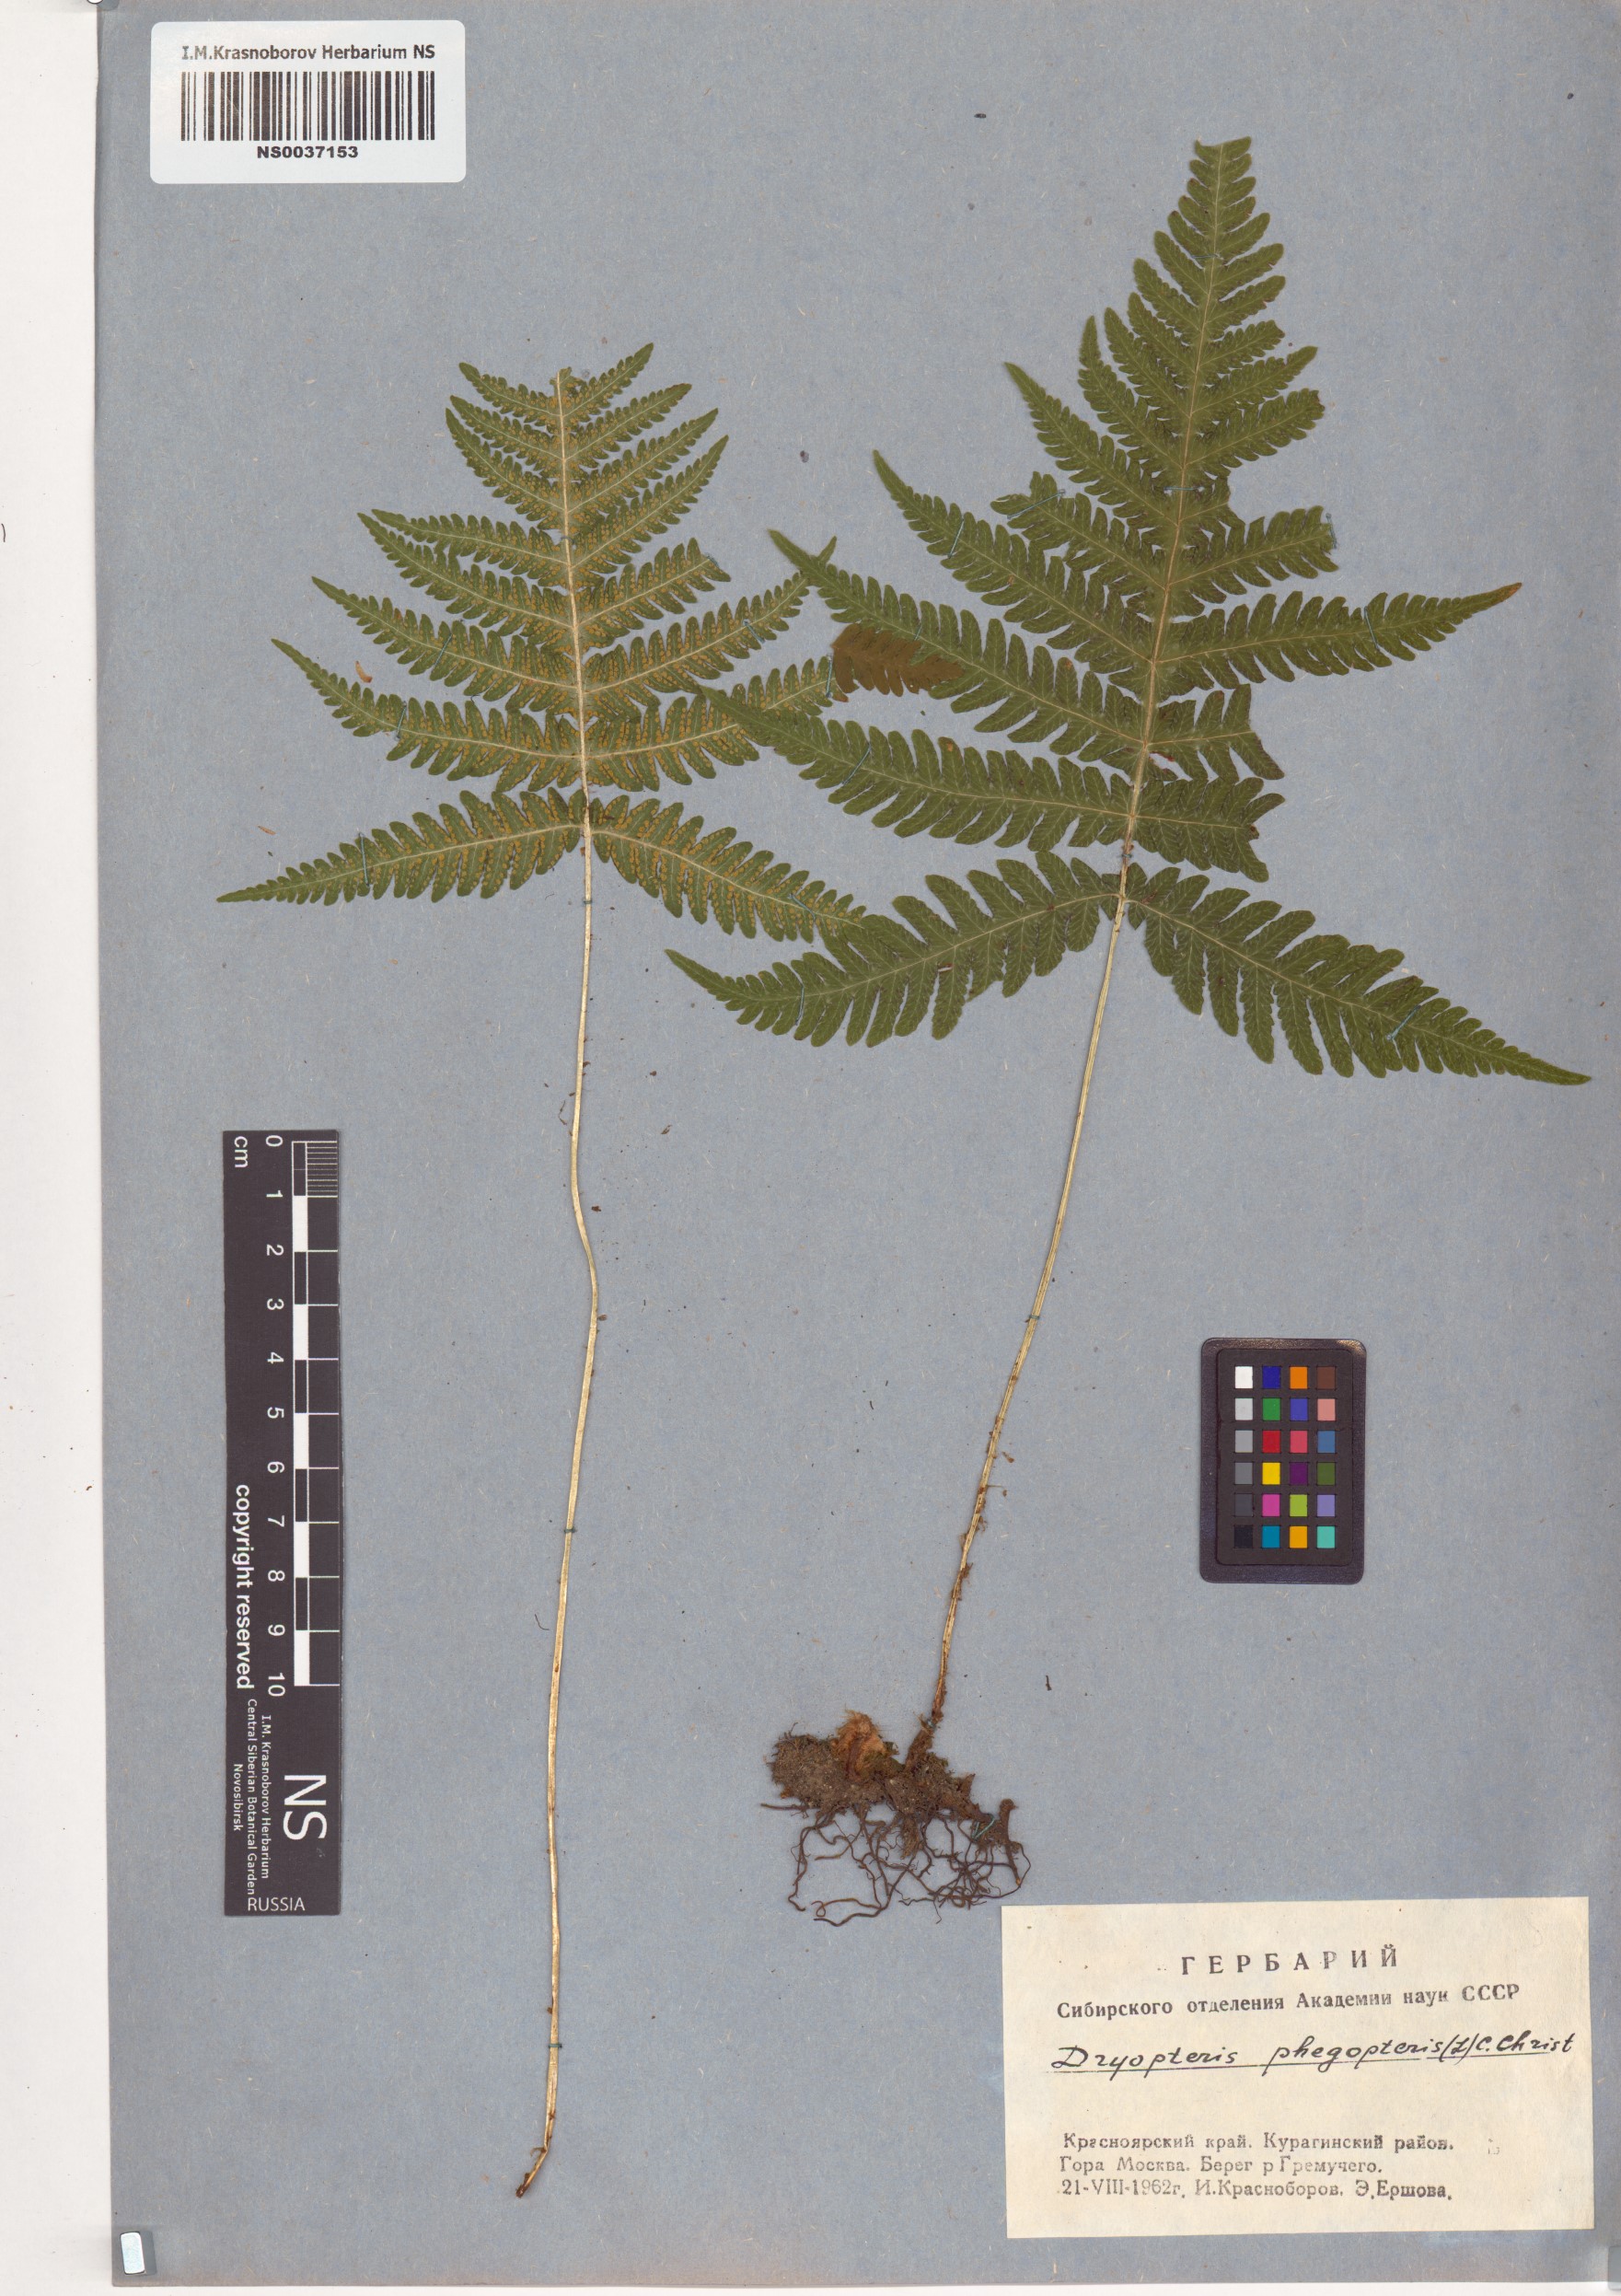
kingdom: Plantae
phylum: Tracheophyta
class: Polypodiopsida
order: Polypodiales
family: Thelypteridaceae
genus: Phegopteris
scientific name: Phegopteris connectilis
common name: Beech fern
